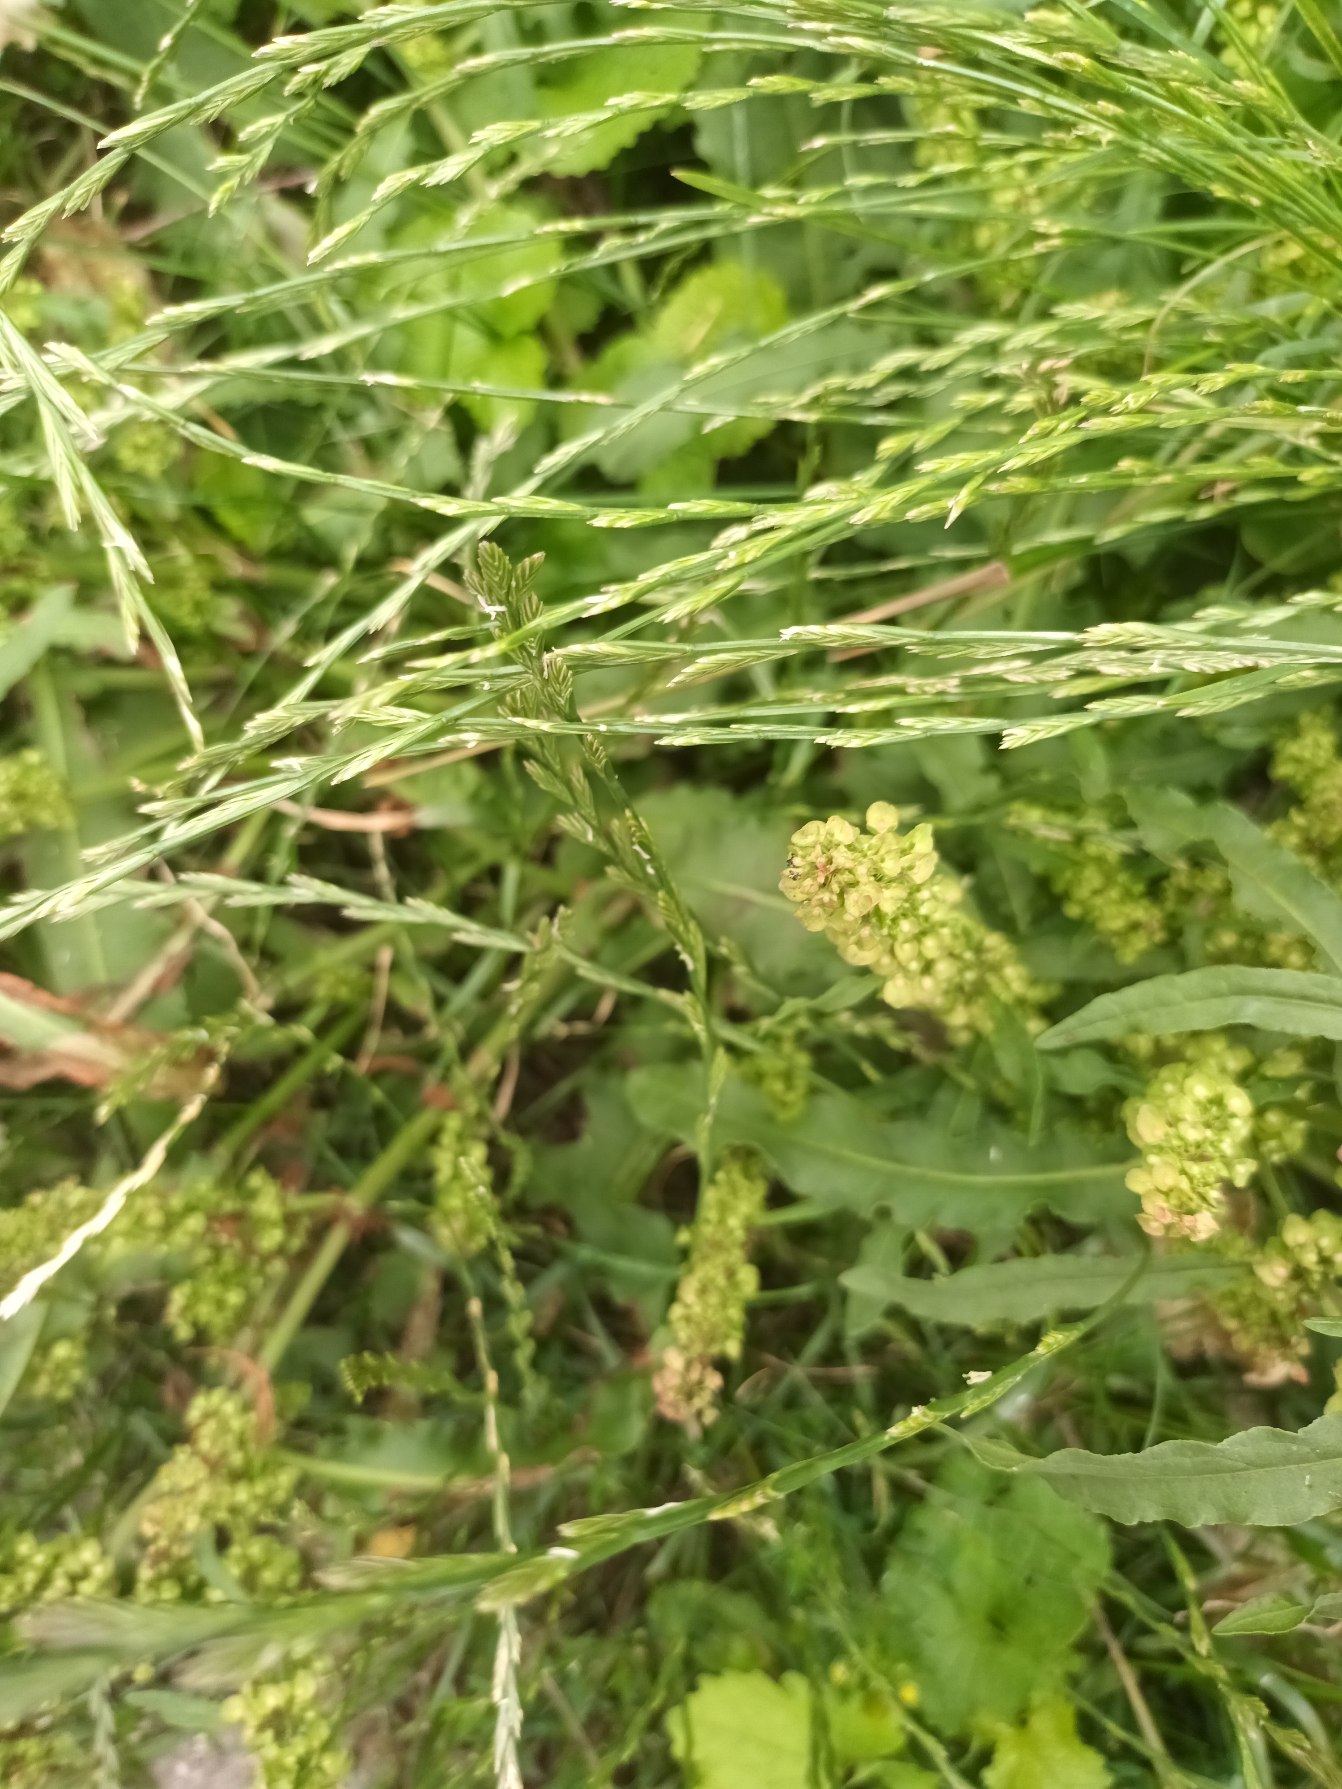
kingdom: Plantae
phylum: Tracheophyta
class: Magnoliopsida
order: Caryophyllales
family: Polygonaceae
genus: Rumex
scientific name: Rumex crispus
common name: Kruset skræppe
